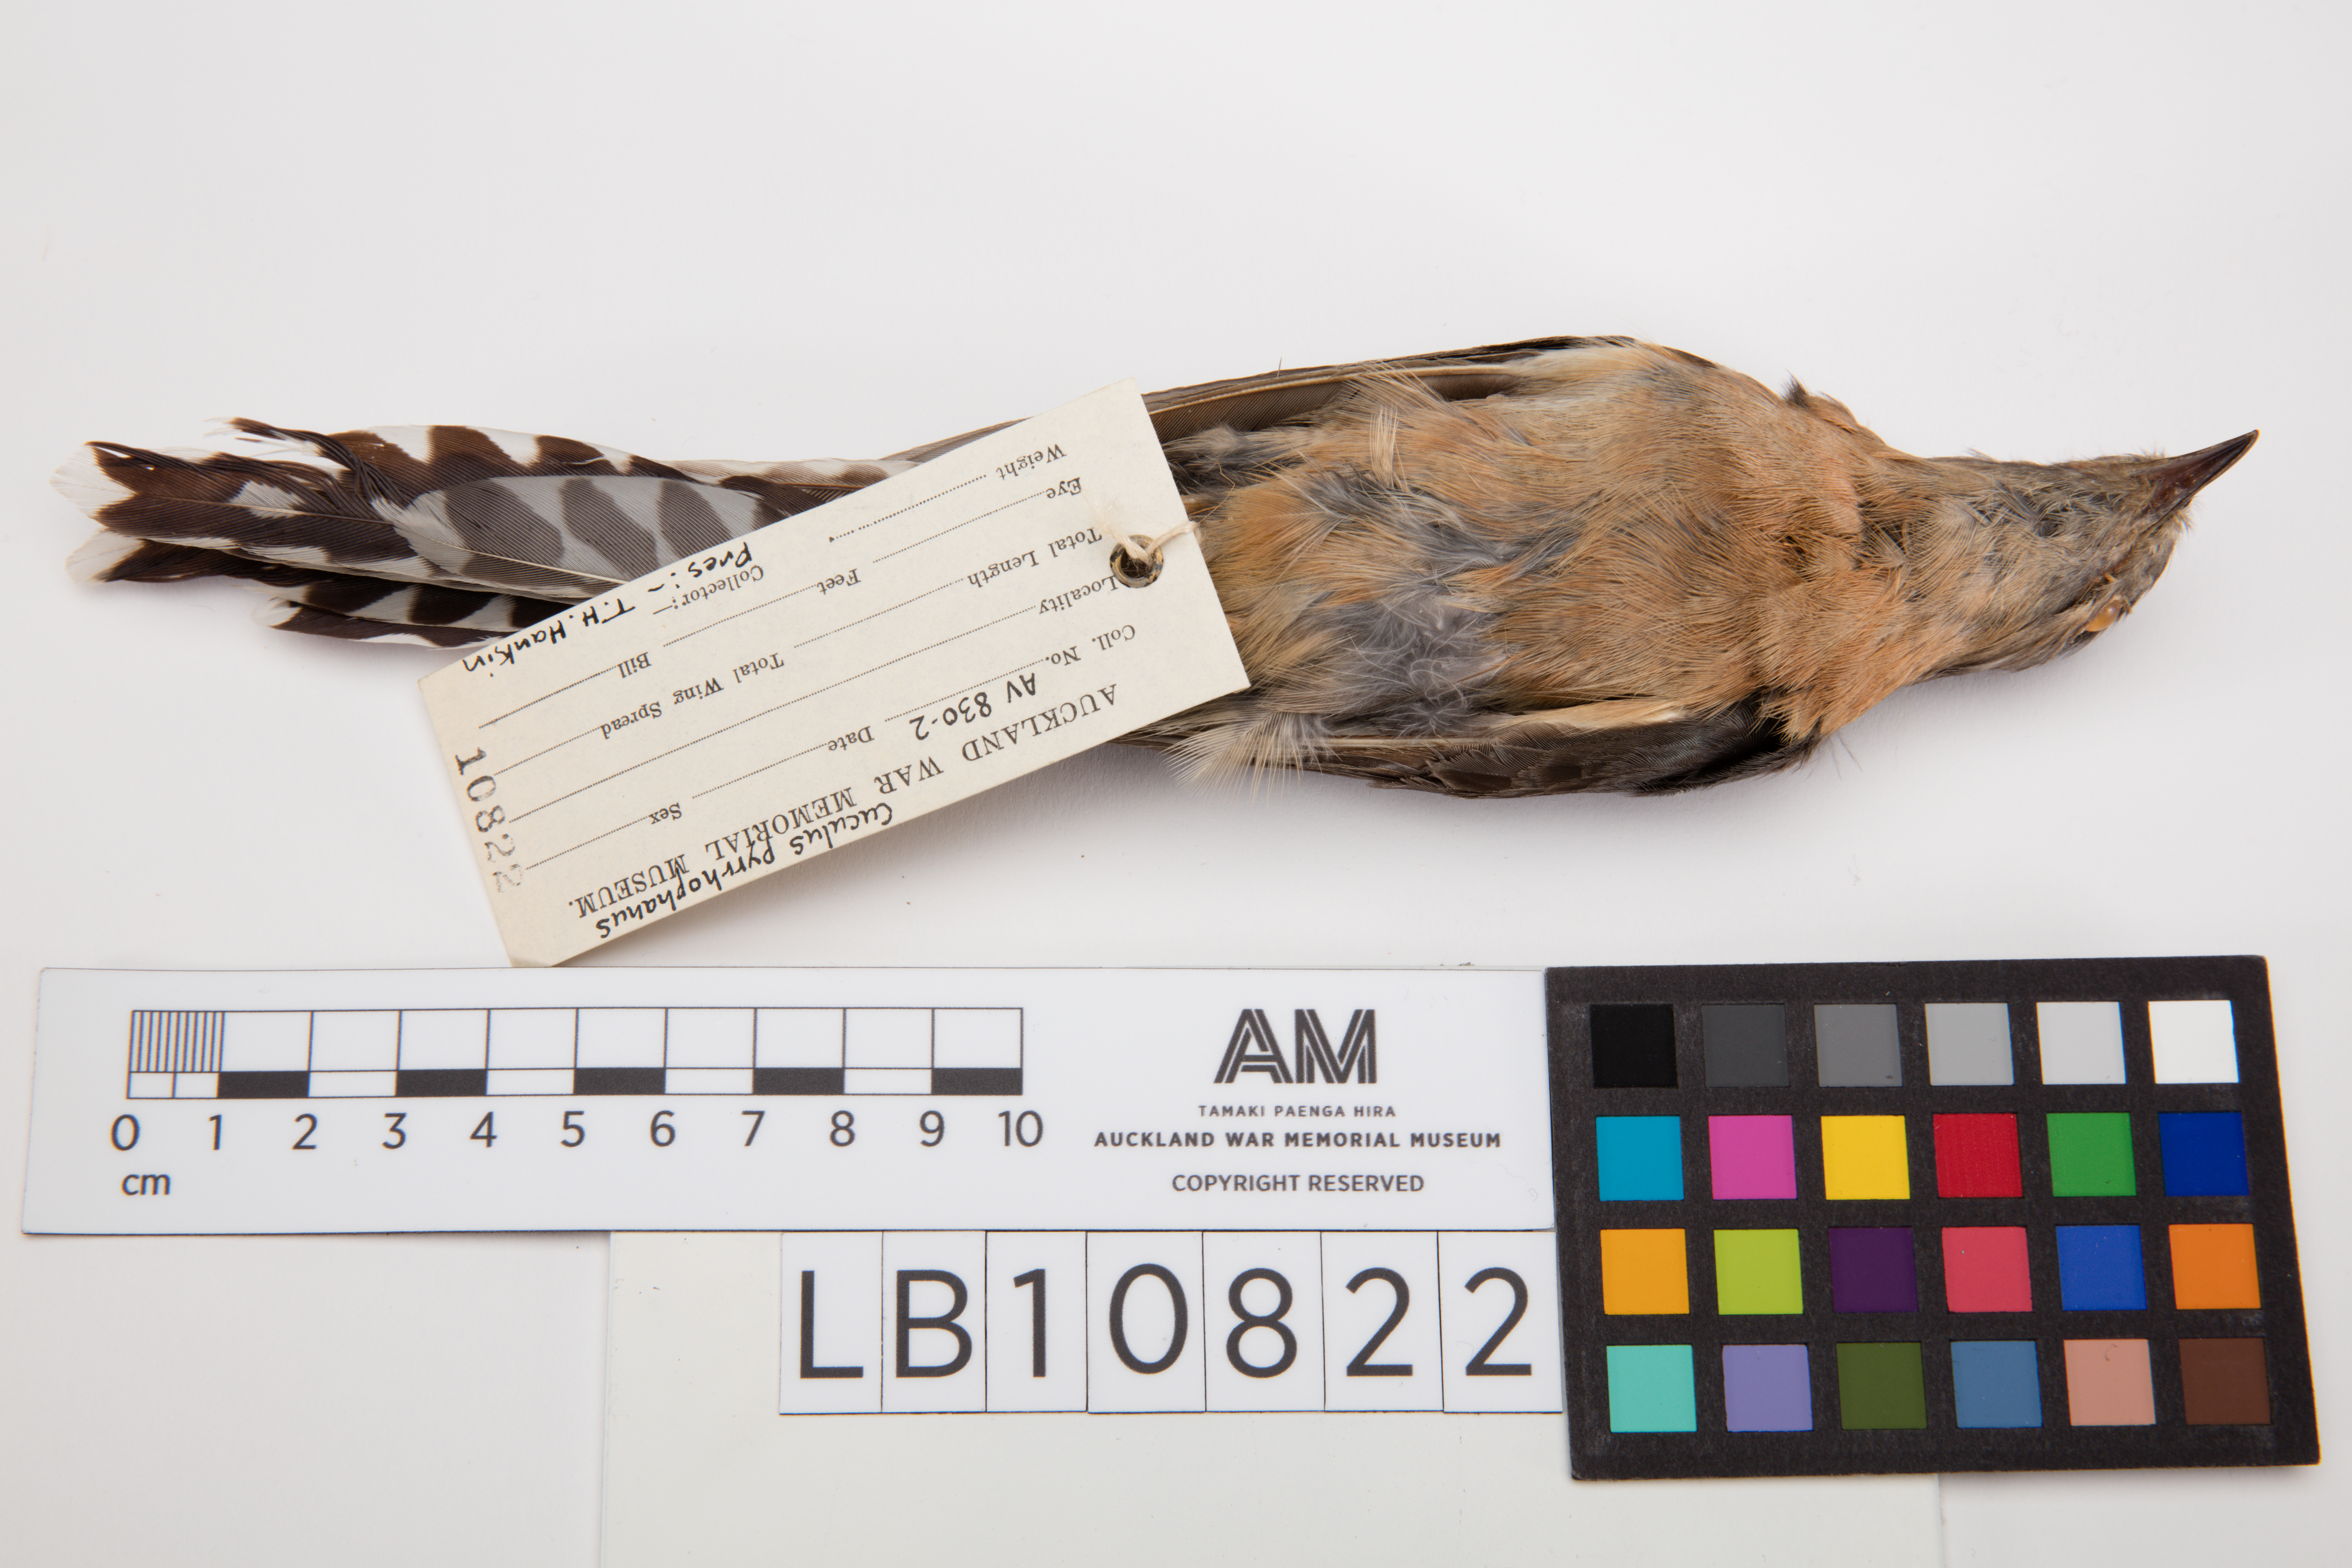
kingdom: Animalia
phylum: Chordata
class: Aves
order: Cuculiformes
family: Cuculidae
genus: Cacomantis
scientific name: Cacomantis flabelliformis
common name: Fan-tailed cuckoo
